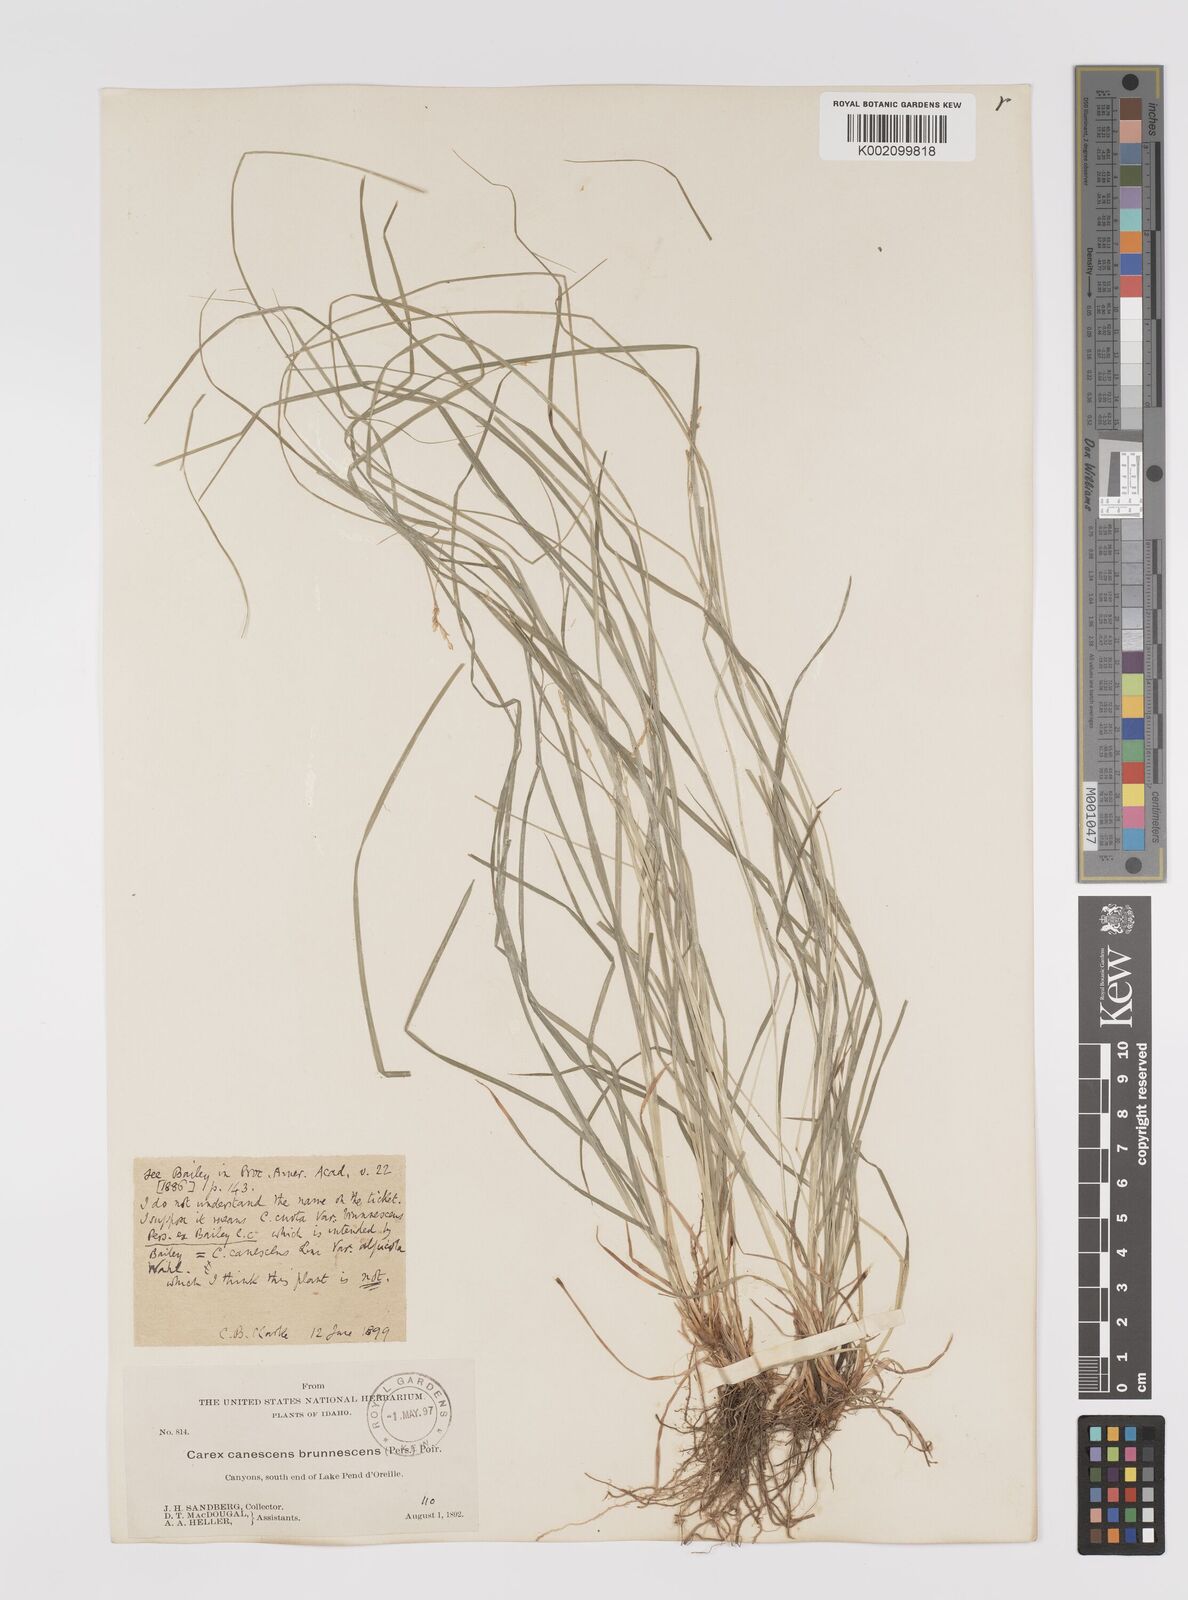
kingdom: Plantae
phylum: Tracheophyta
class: Liliopsida
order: Poales
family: Cyperaceae
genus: Carex
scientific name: Carex curta
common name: White sedge
